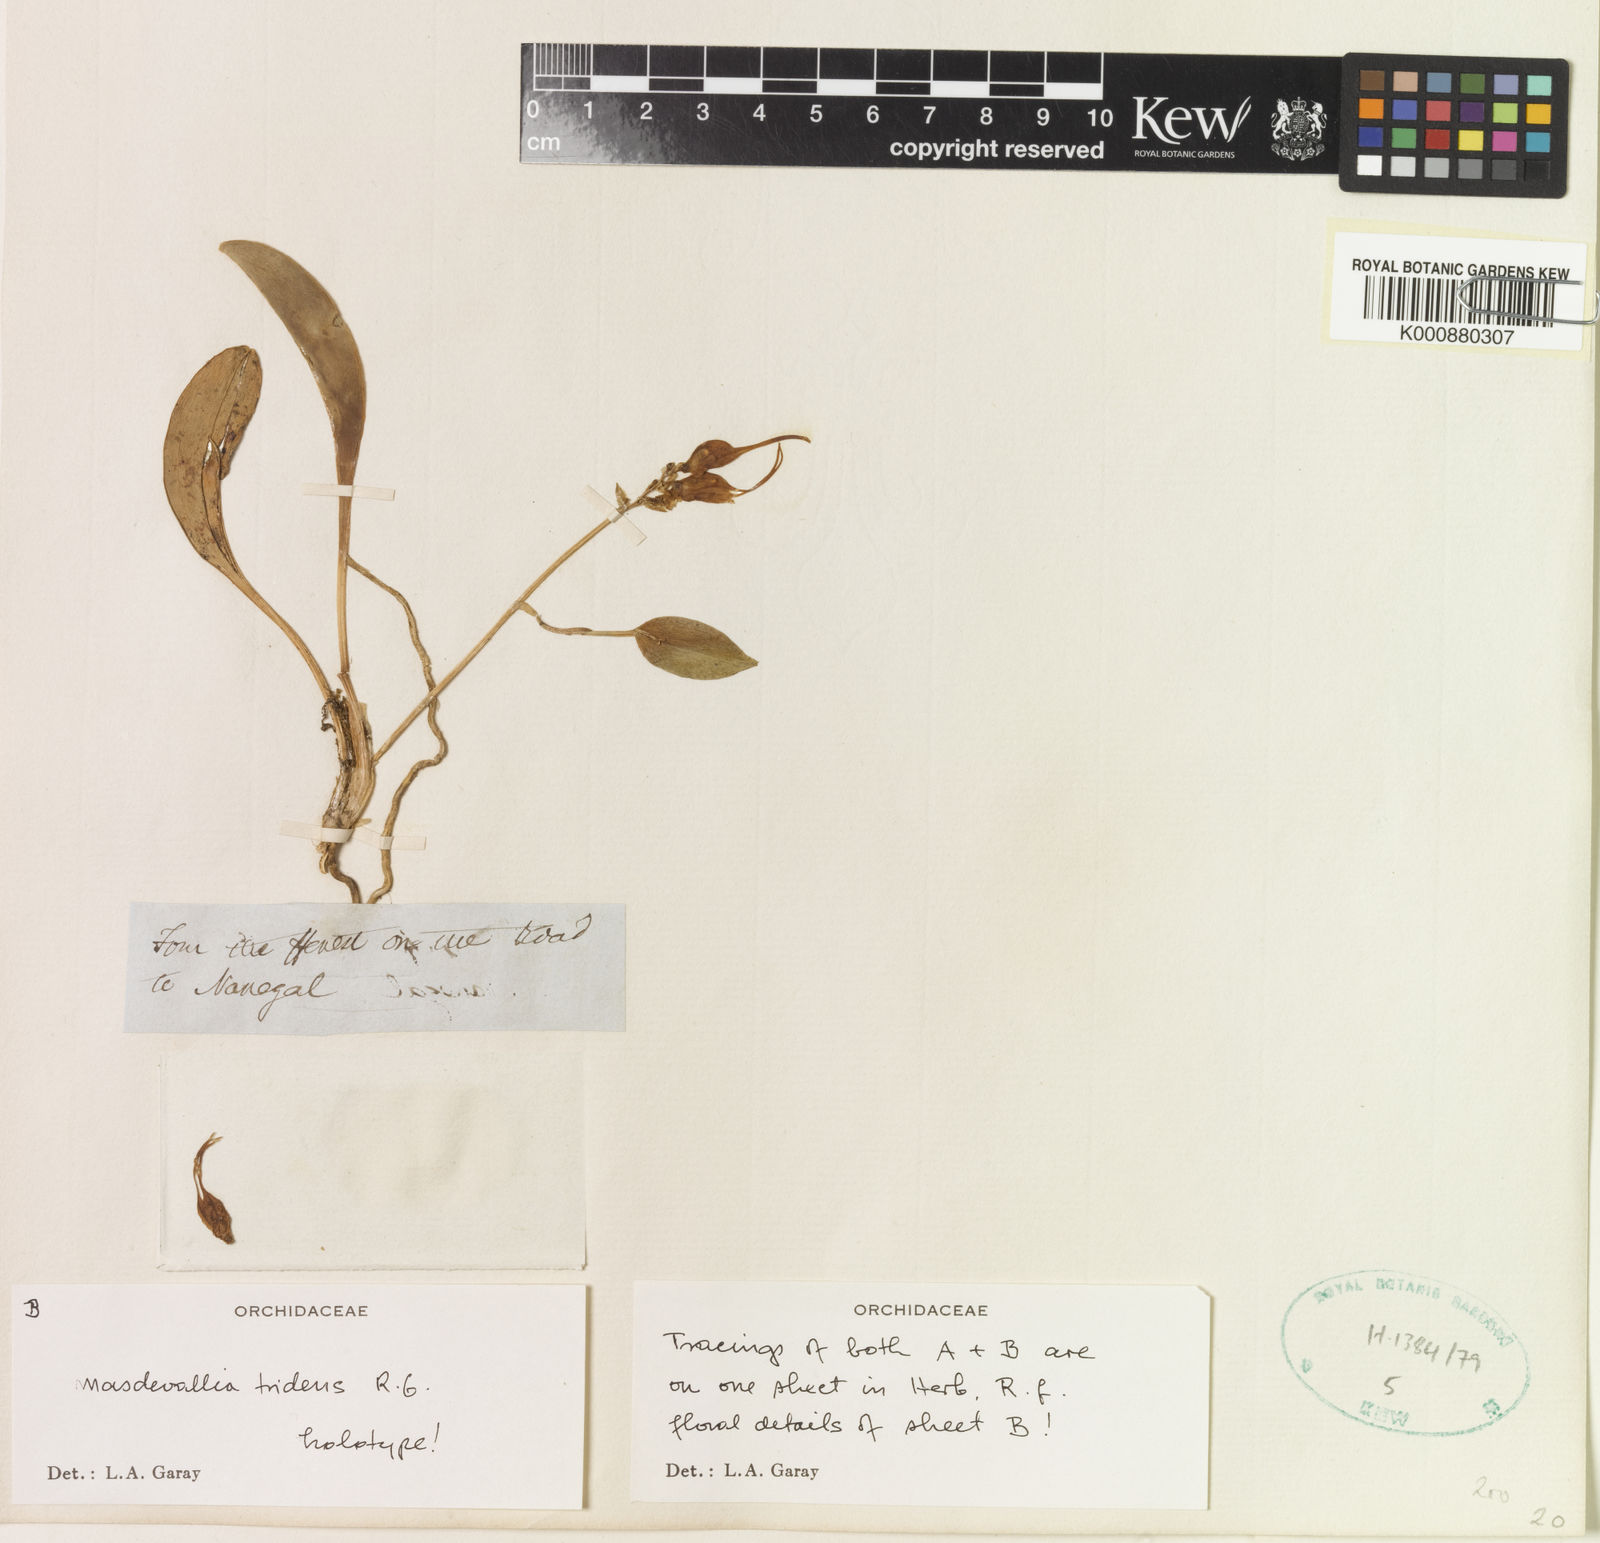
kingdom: Plantae
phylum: Tracheophyta
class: Liliopsida
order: Asparagales
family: Orchidaceae
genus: Masdevallia
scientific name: Masdevallia tridens
